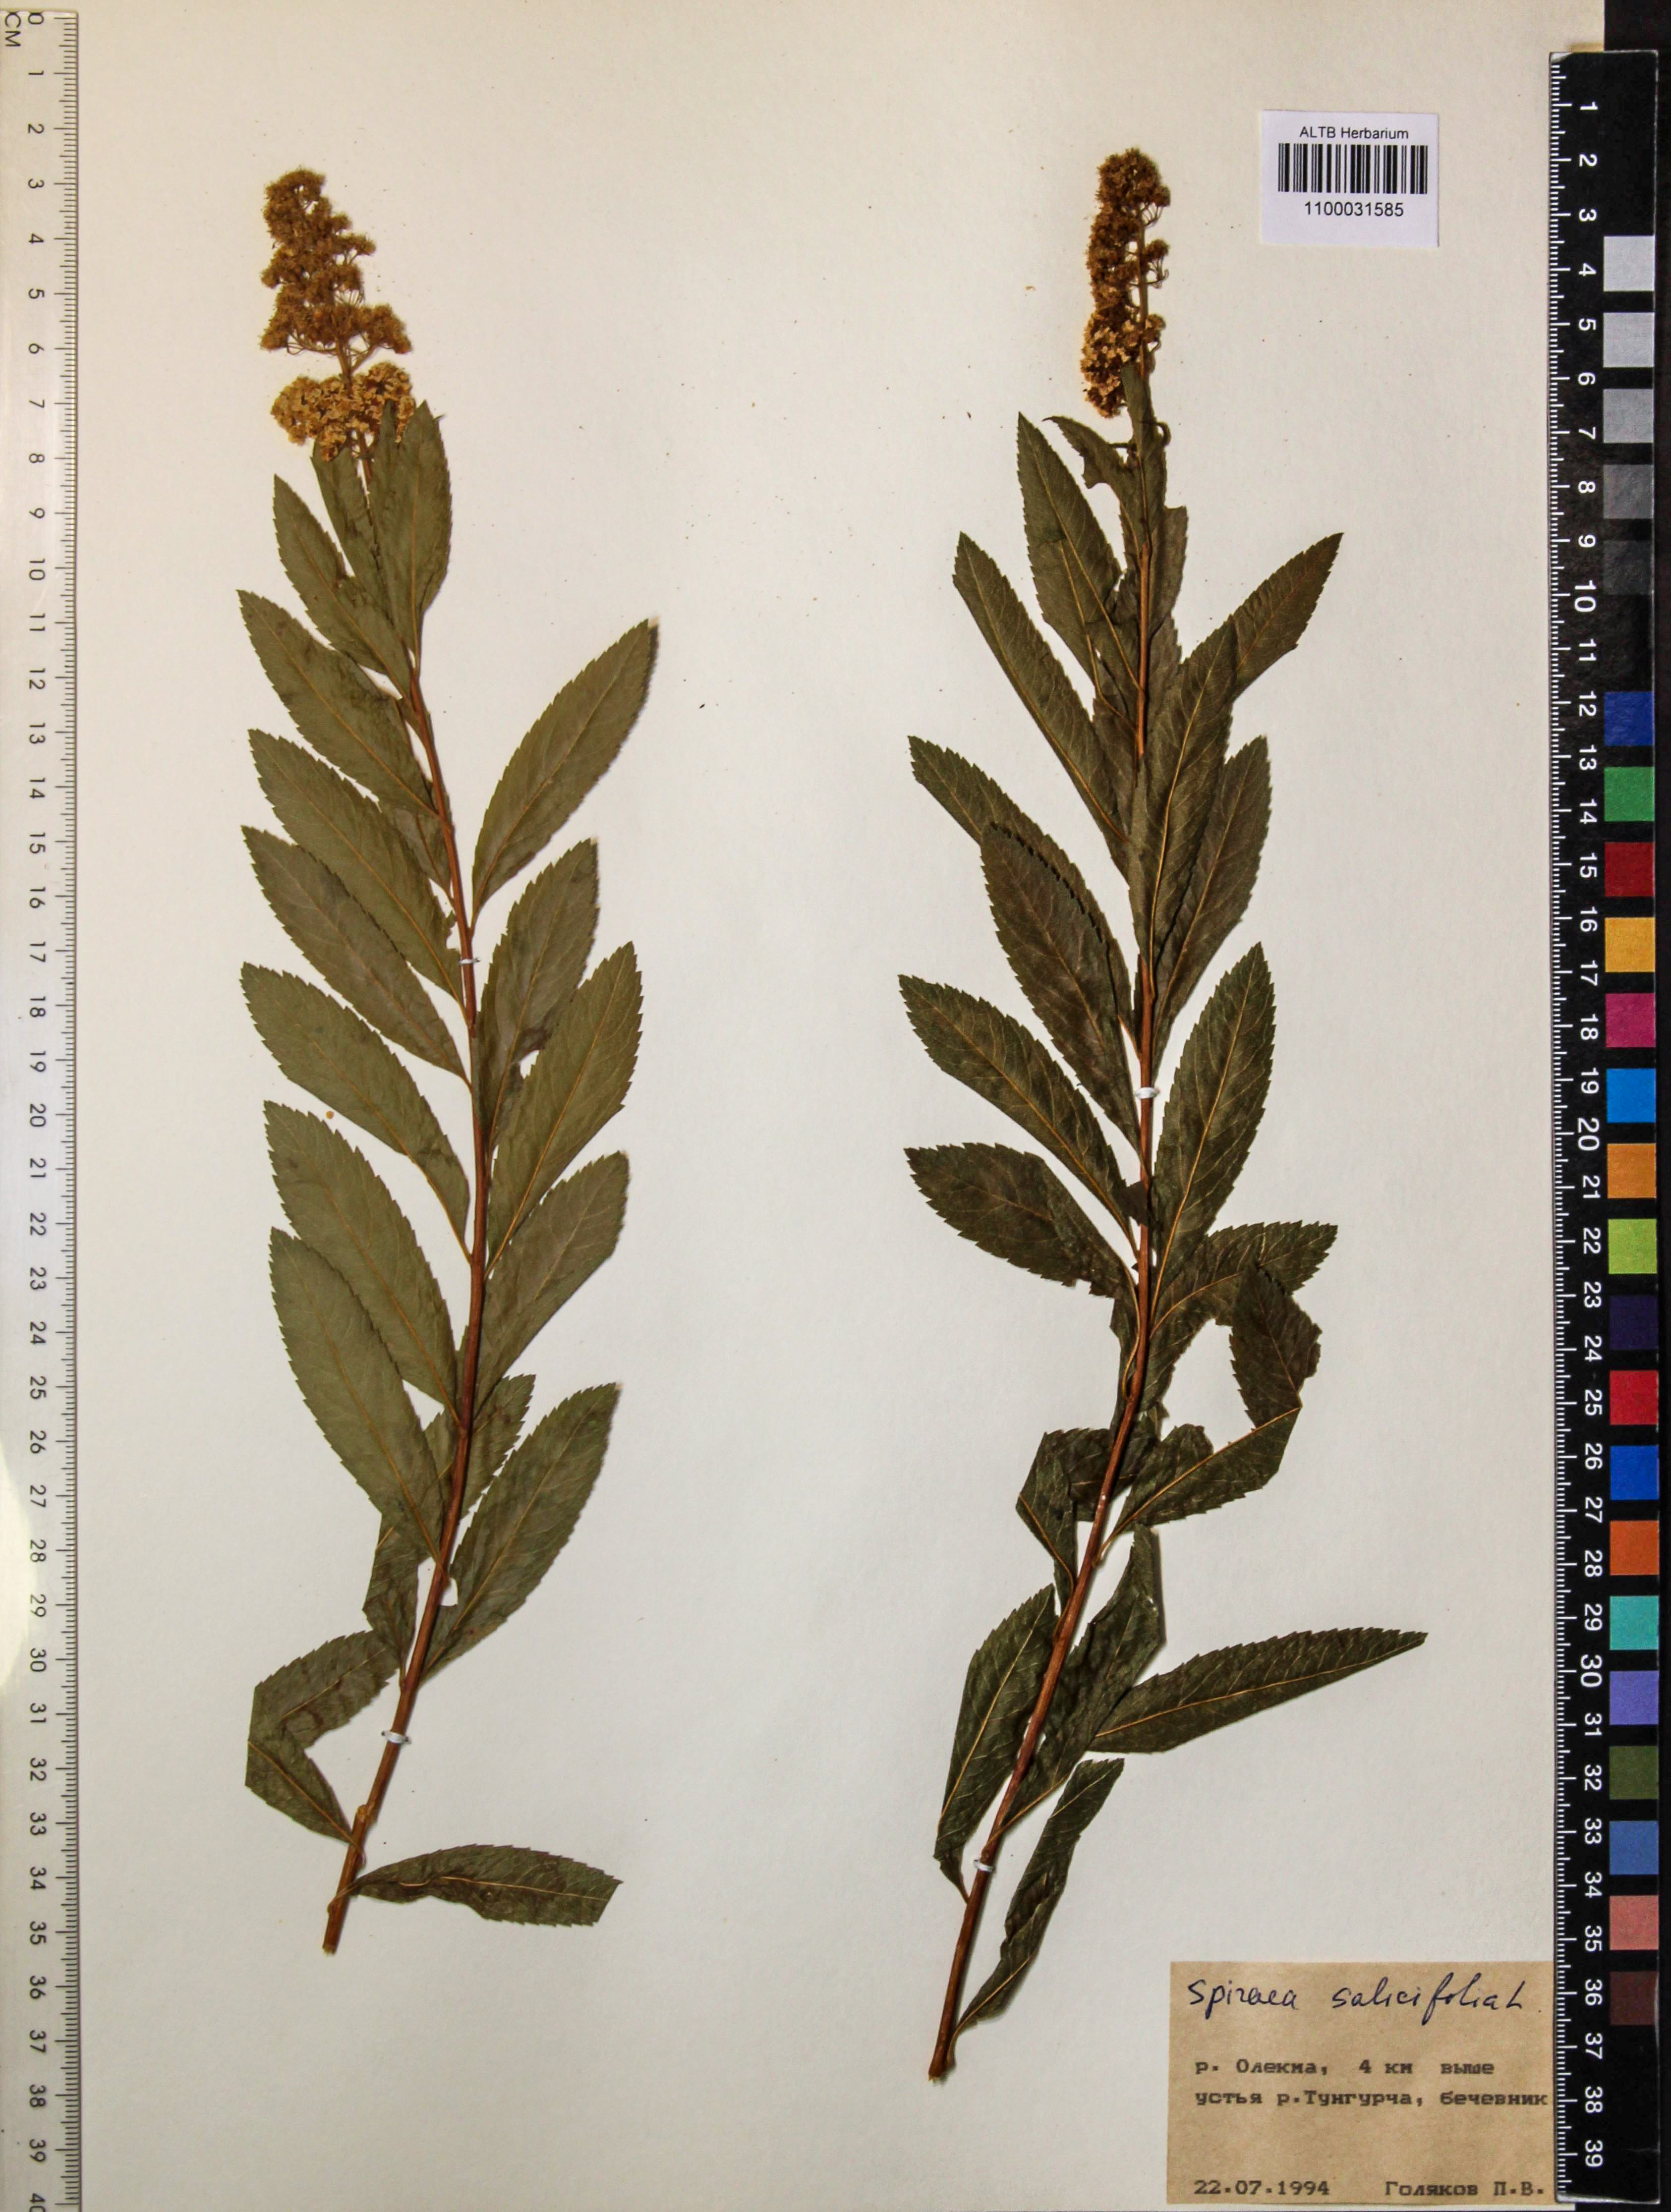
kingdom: Plantae
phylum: Tracheophyta
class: Magnoliopsida
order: Rosales
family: Rosaceae
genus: Spiraea
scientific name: Spiraea salicifolia
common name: Bridewort
